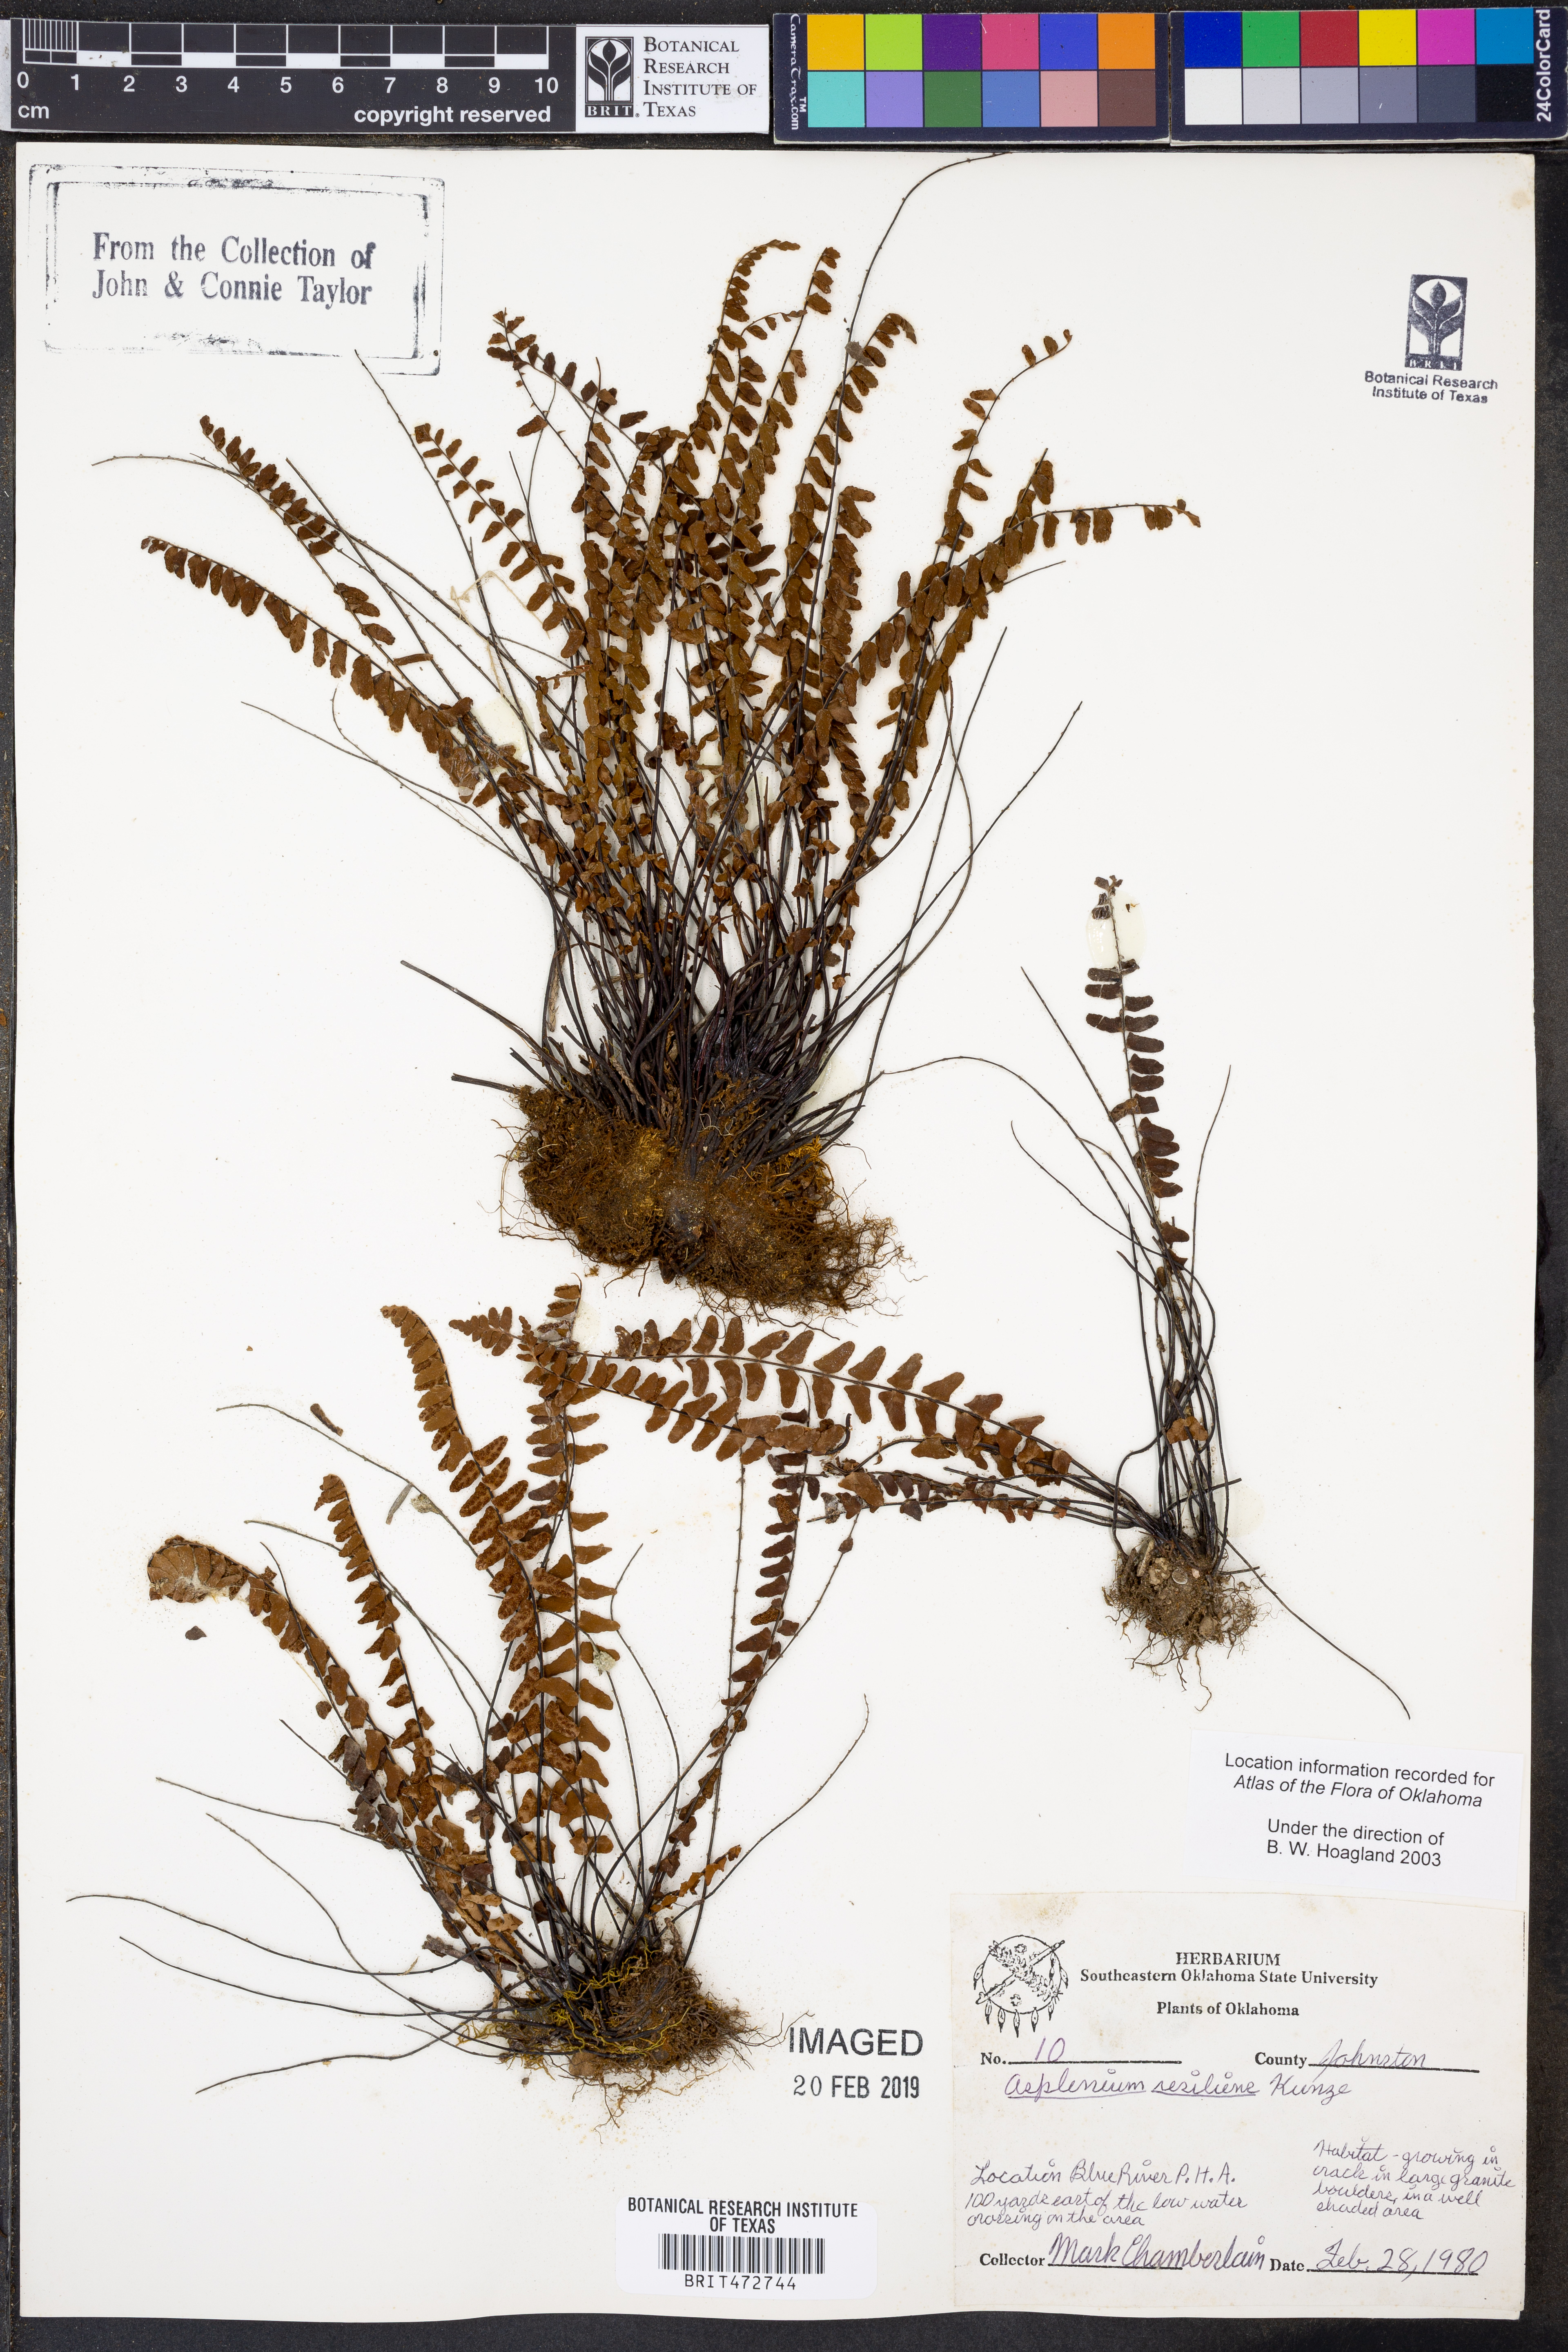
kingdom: Plantae
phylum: Tracheophyta
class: Polypodiopsida
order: Polypodiales
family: Aspleniaceae
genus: Asplenium
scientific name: Asplenium resiliens
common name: Blackstem spleenwort
